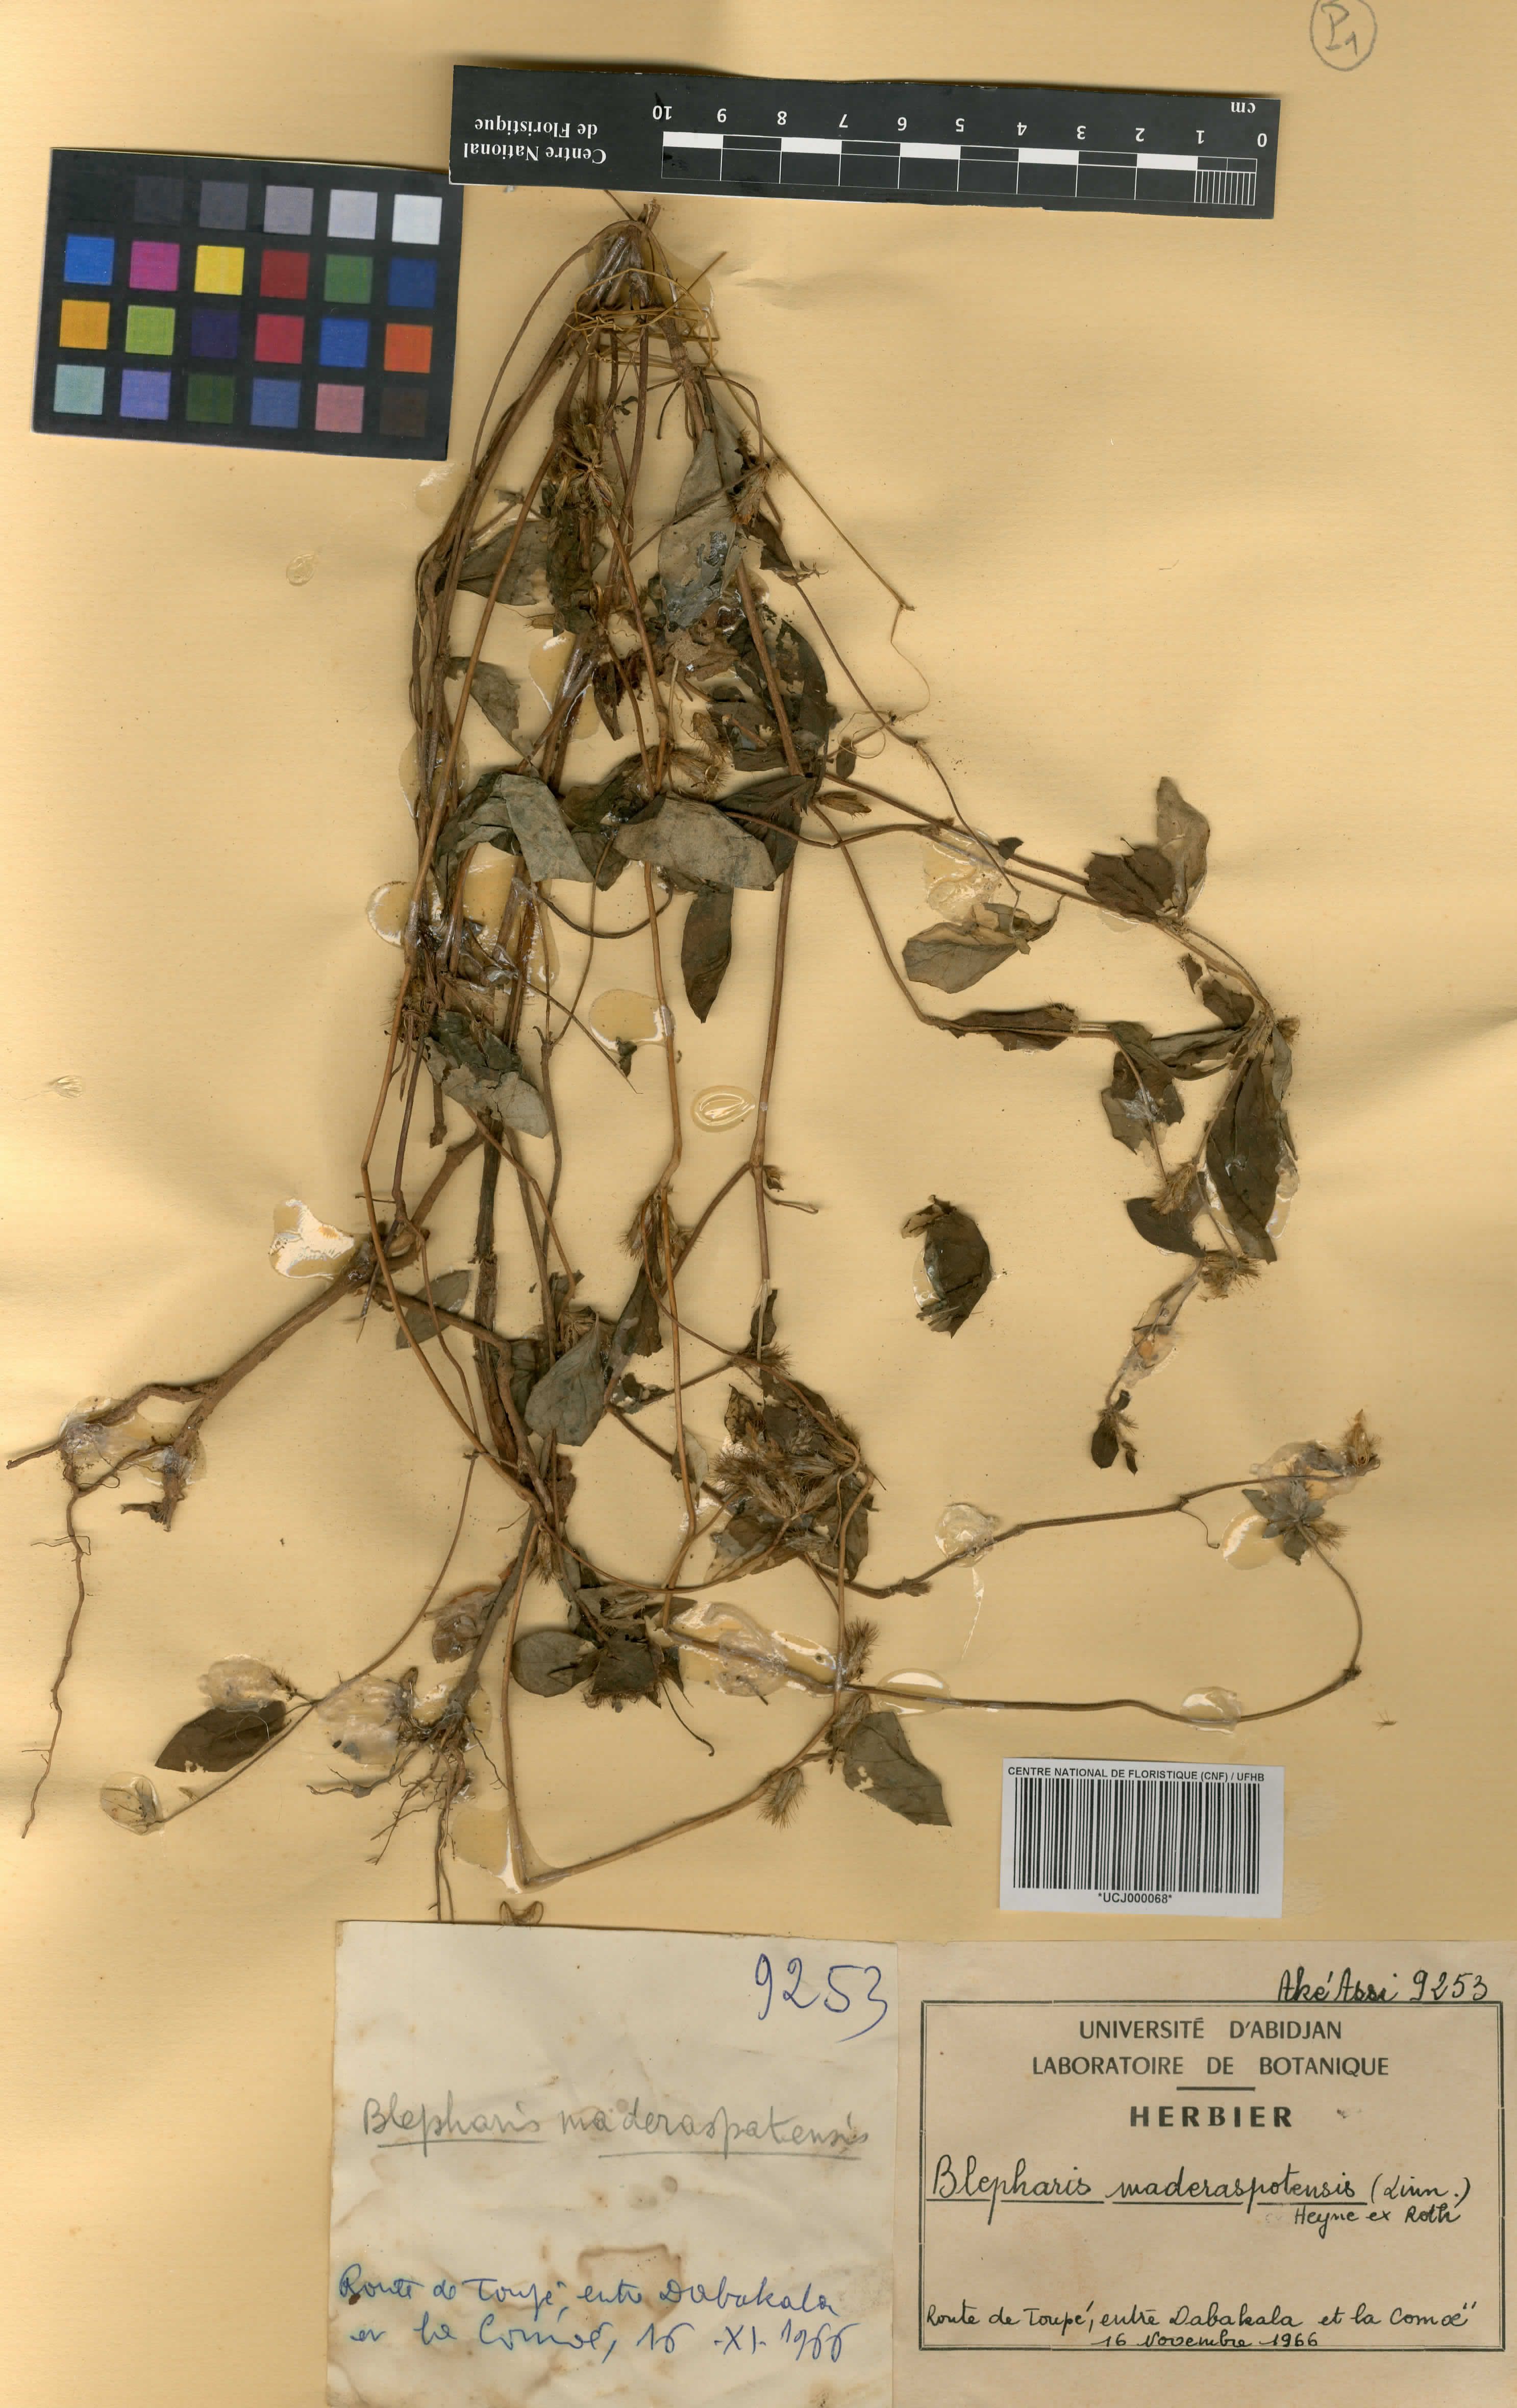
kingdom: Plantae
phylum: Tracheophyta
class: Magnoliopsida
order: Lamiales
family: Acanthaceae
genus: Blepharis
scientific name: Blepharis maderaspatensis
